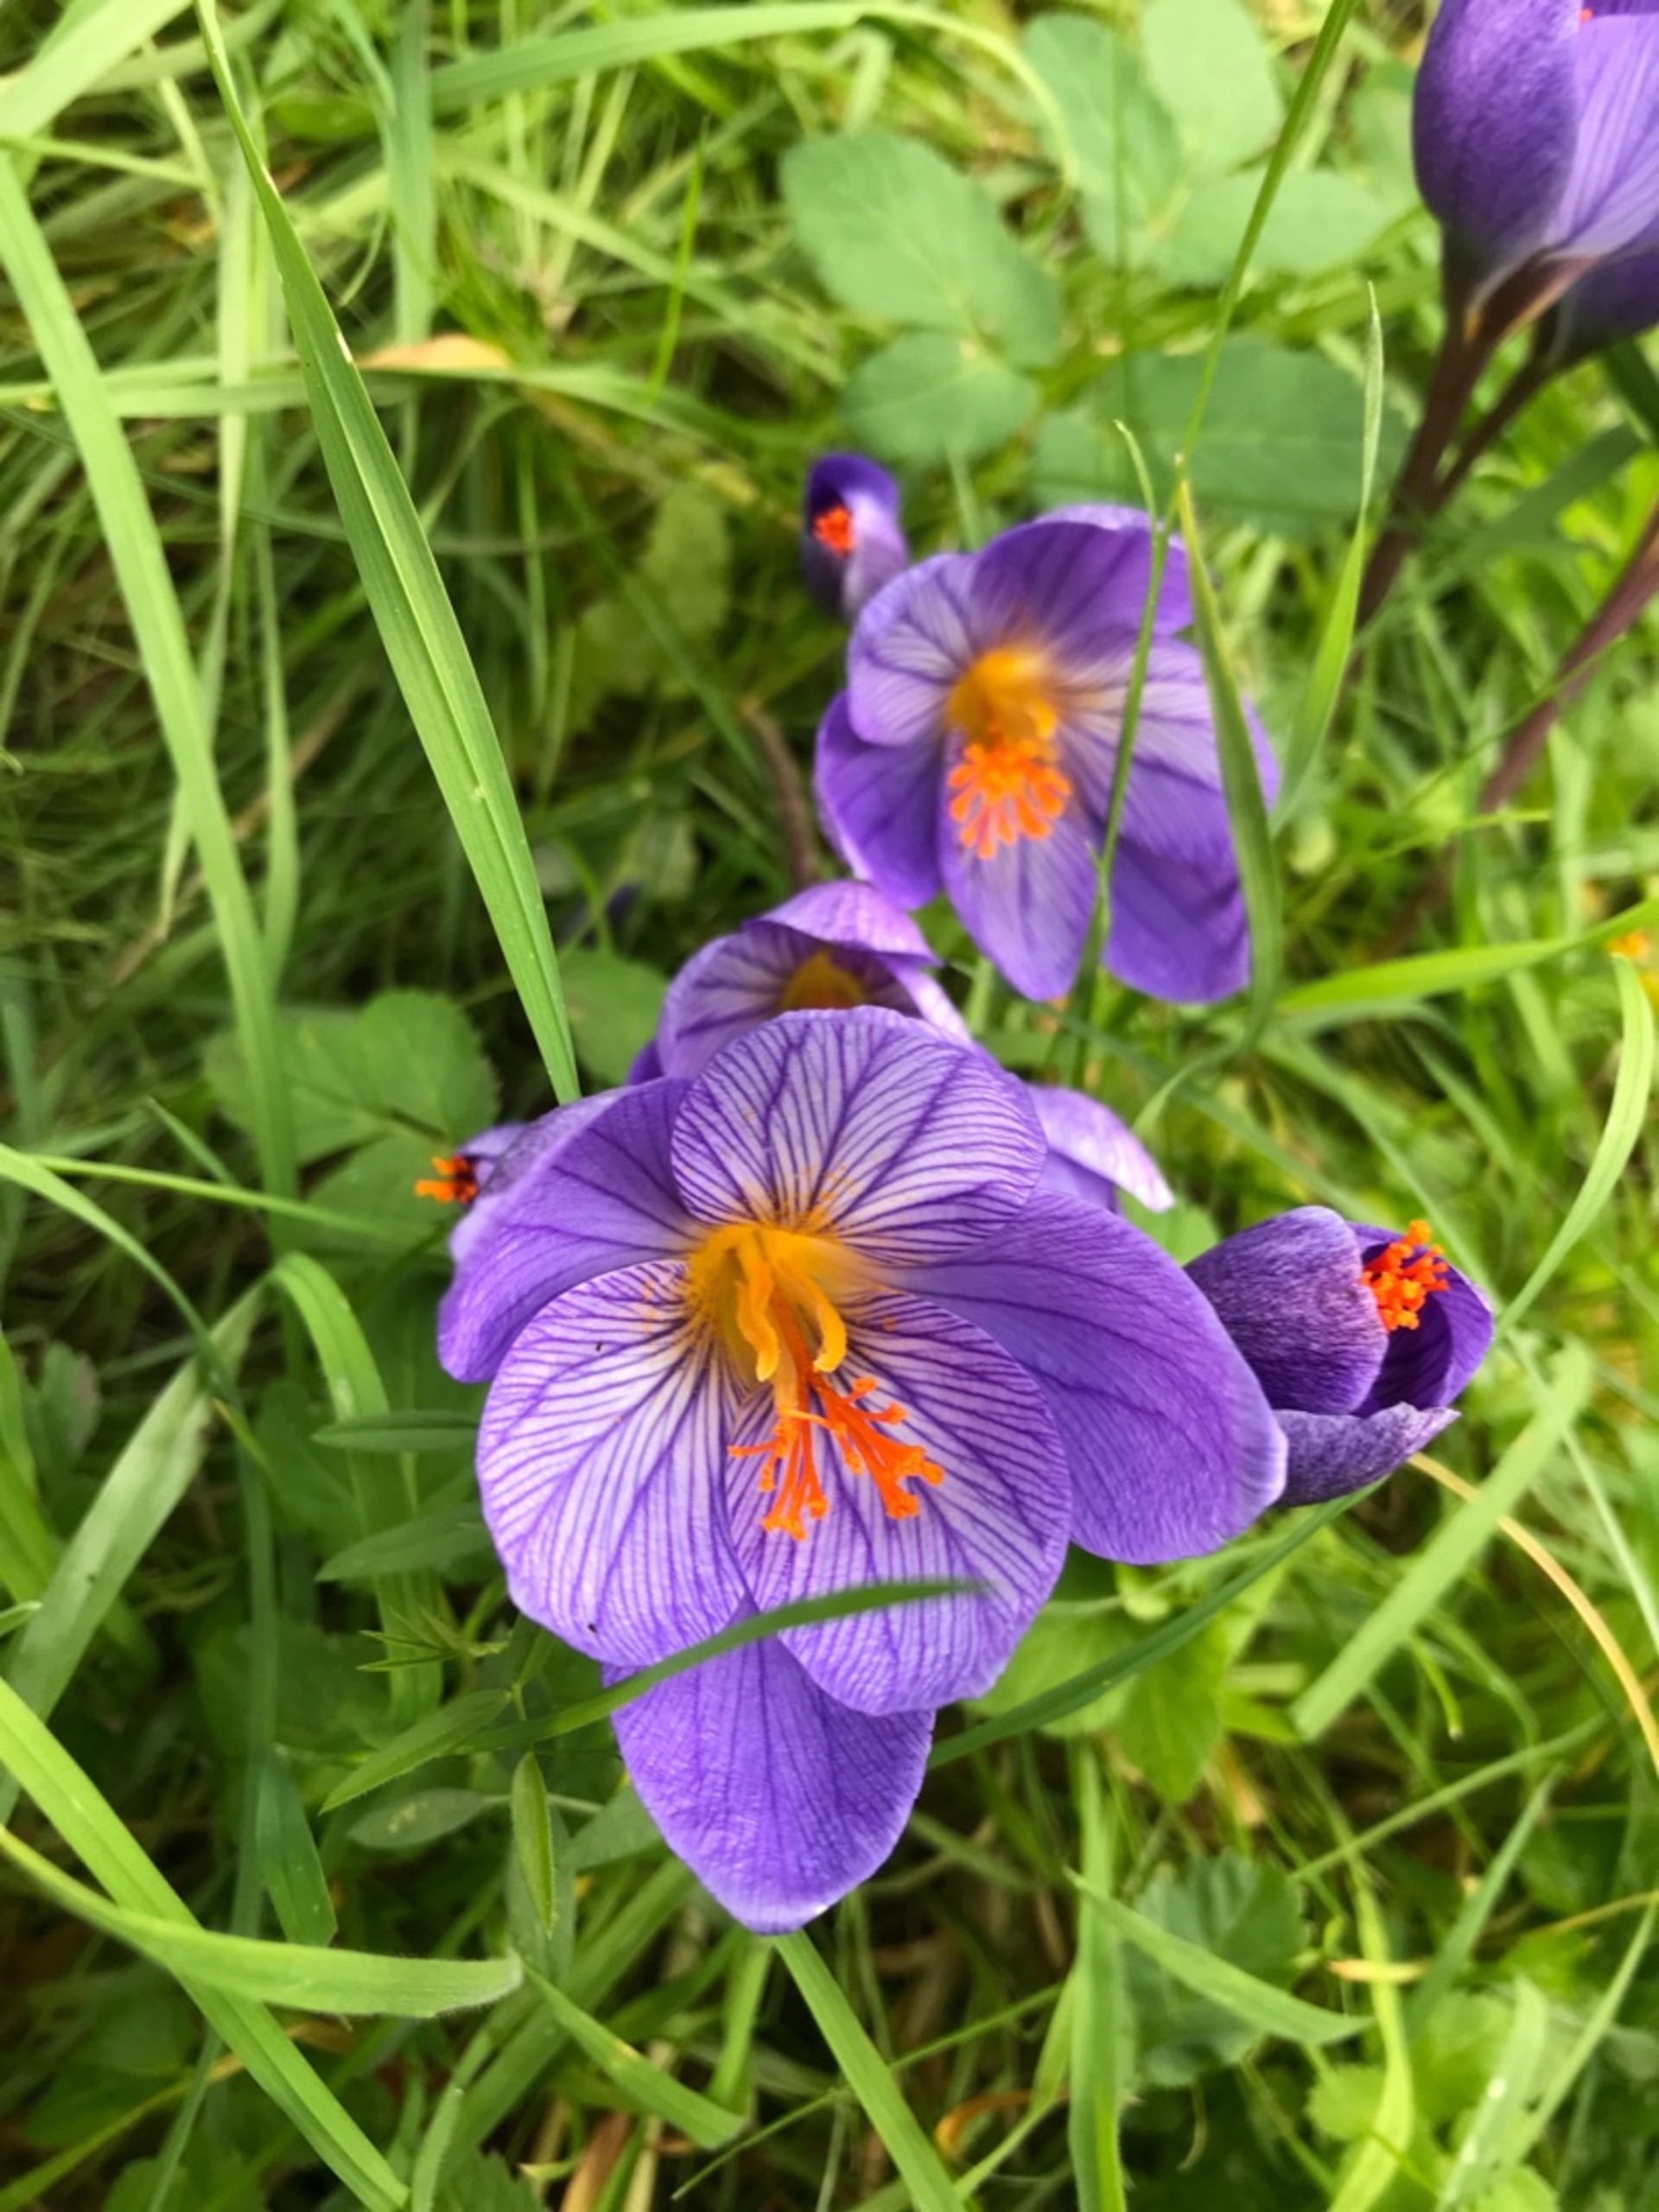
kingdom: Plantae
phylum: Tracheophyta
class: Liliopsida
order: Asparagales
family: Iridaceae
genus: Crocus
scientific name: Crocus speciosus
